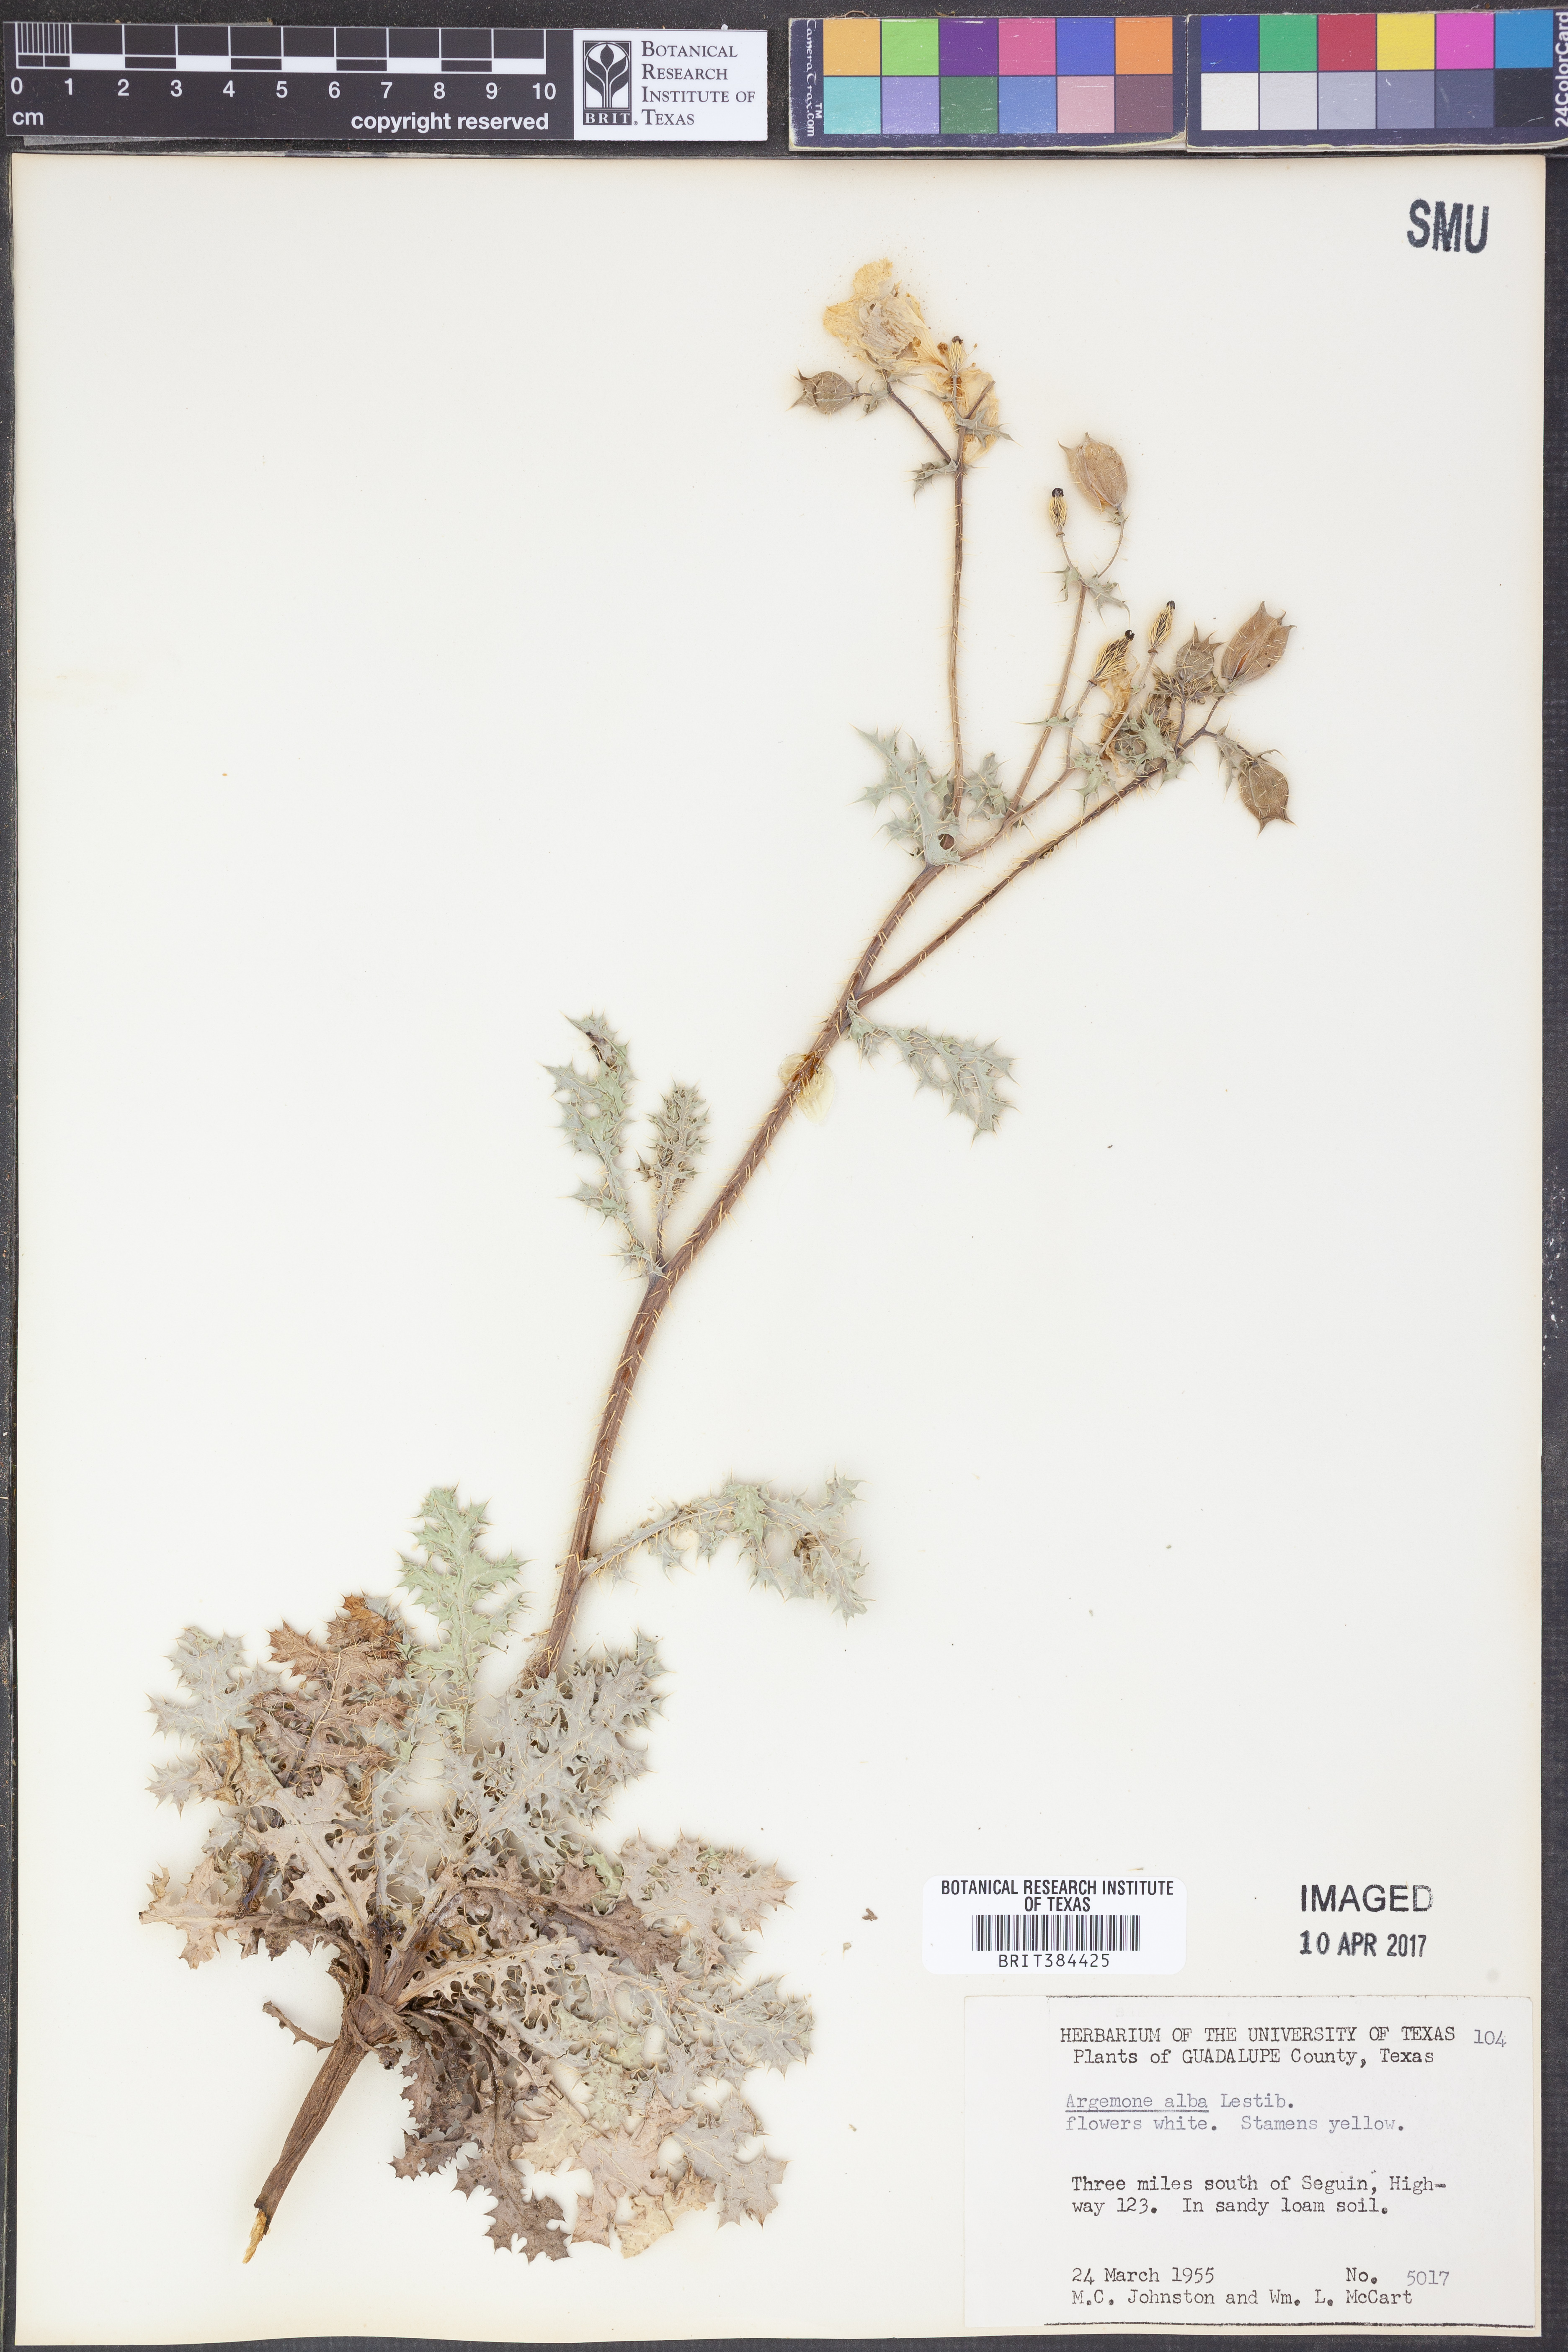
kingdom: Plantae
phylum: Tracheophyta
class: Magnoliopsida
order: Ranunculales
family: Papaveraceae
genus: Argemone
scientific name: Argemone albiflora
